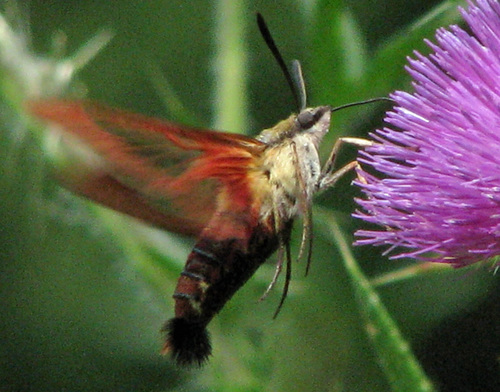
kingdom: Animalia
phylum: Arthropoda
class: Insecta
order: Lepidoptera
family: Sphingidae
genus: Hemaris
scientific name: Hemaris thysbe
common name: Common clear-wing
